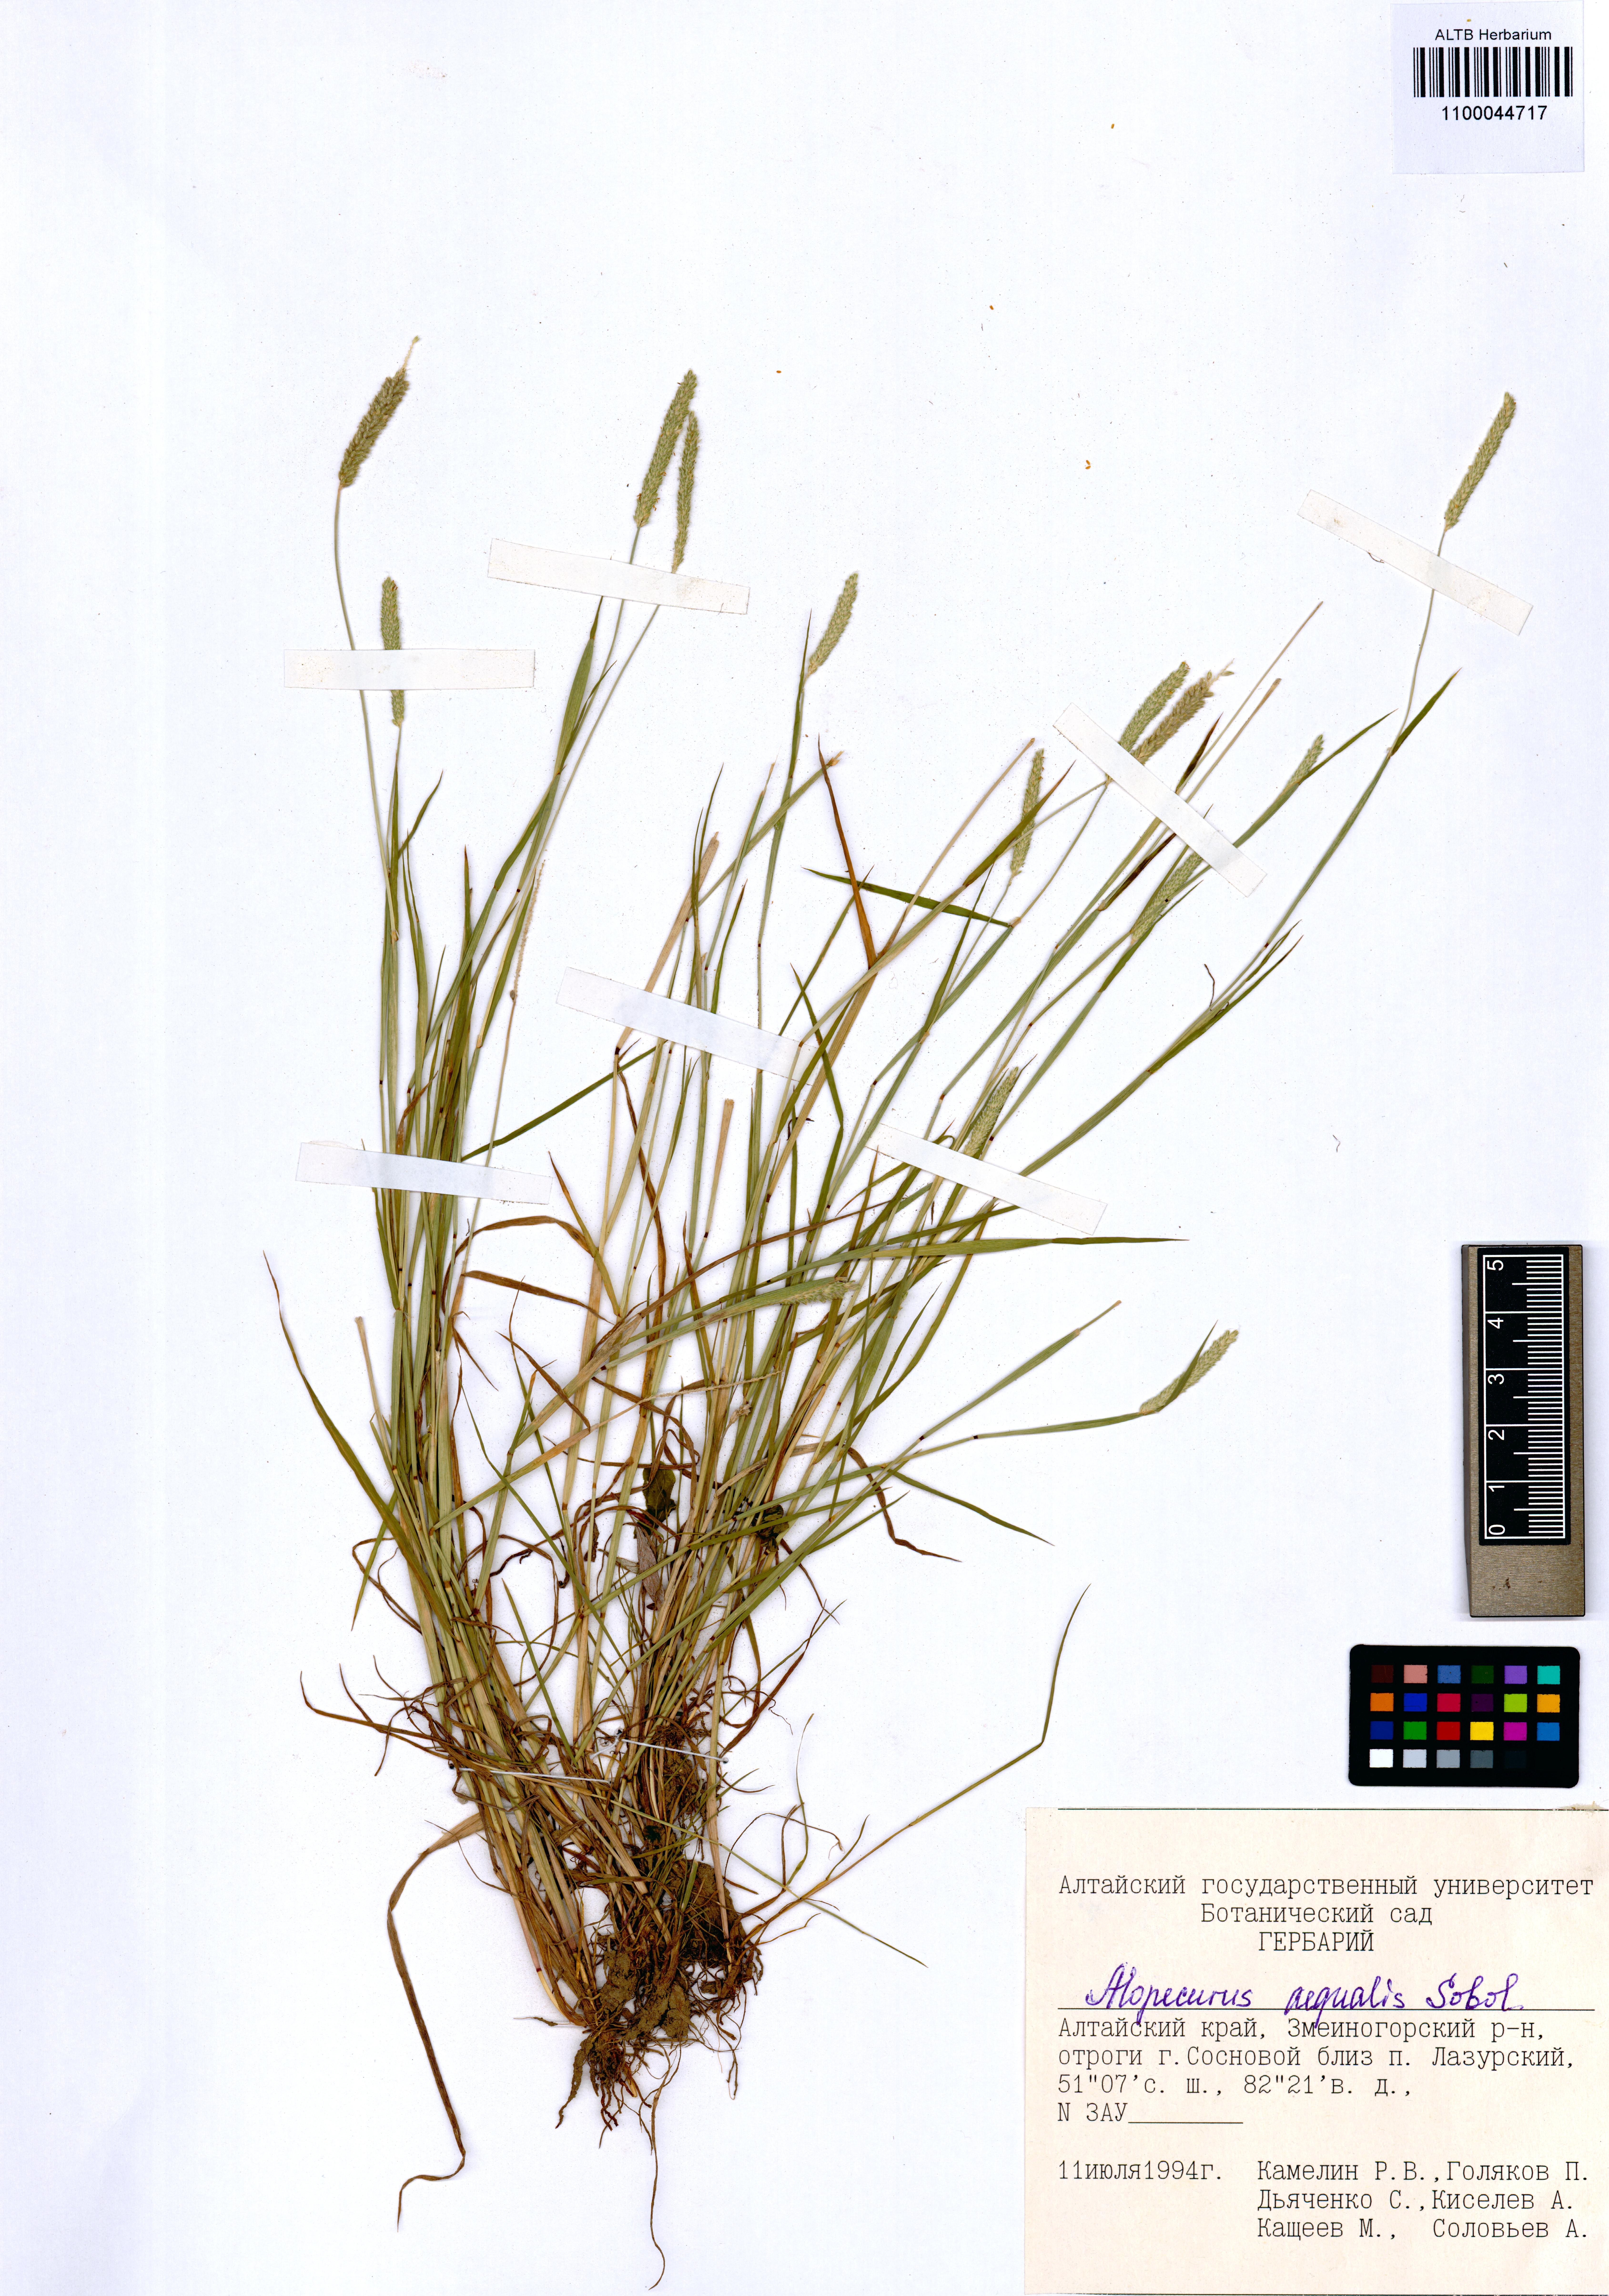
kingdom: Plantae
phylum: Tracheophyta
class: Liliopsida
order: Poales
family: Poaceae
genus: Alopecurus
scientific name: Alopecurus aequalis
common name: Orange foxtail
